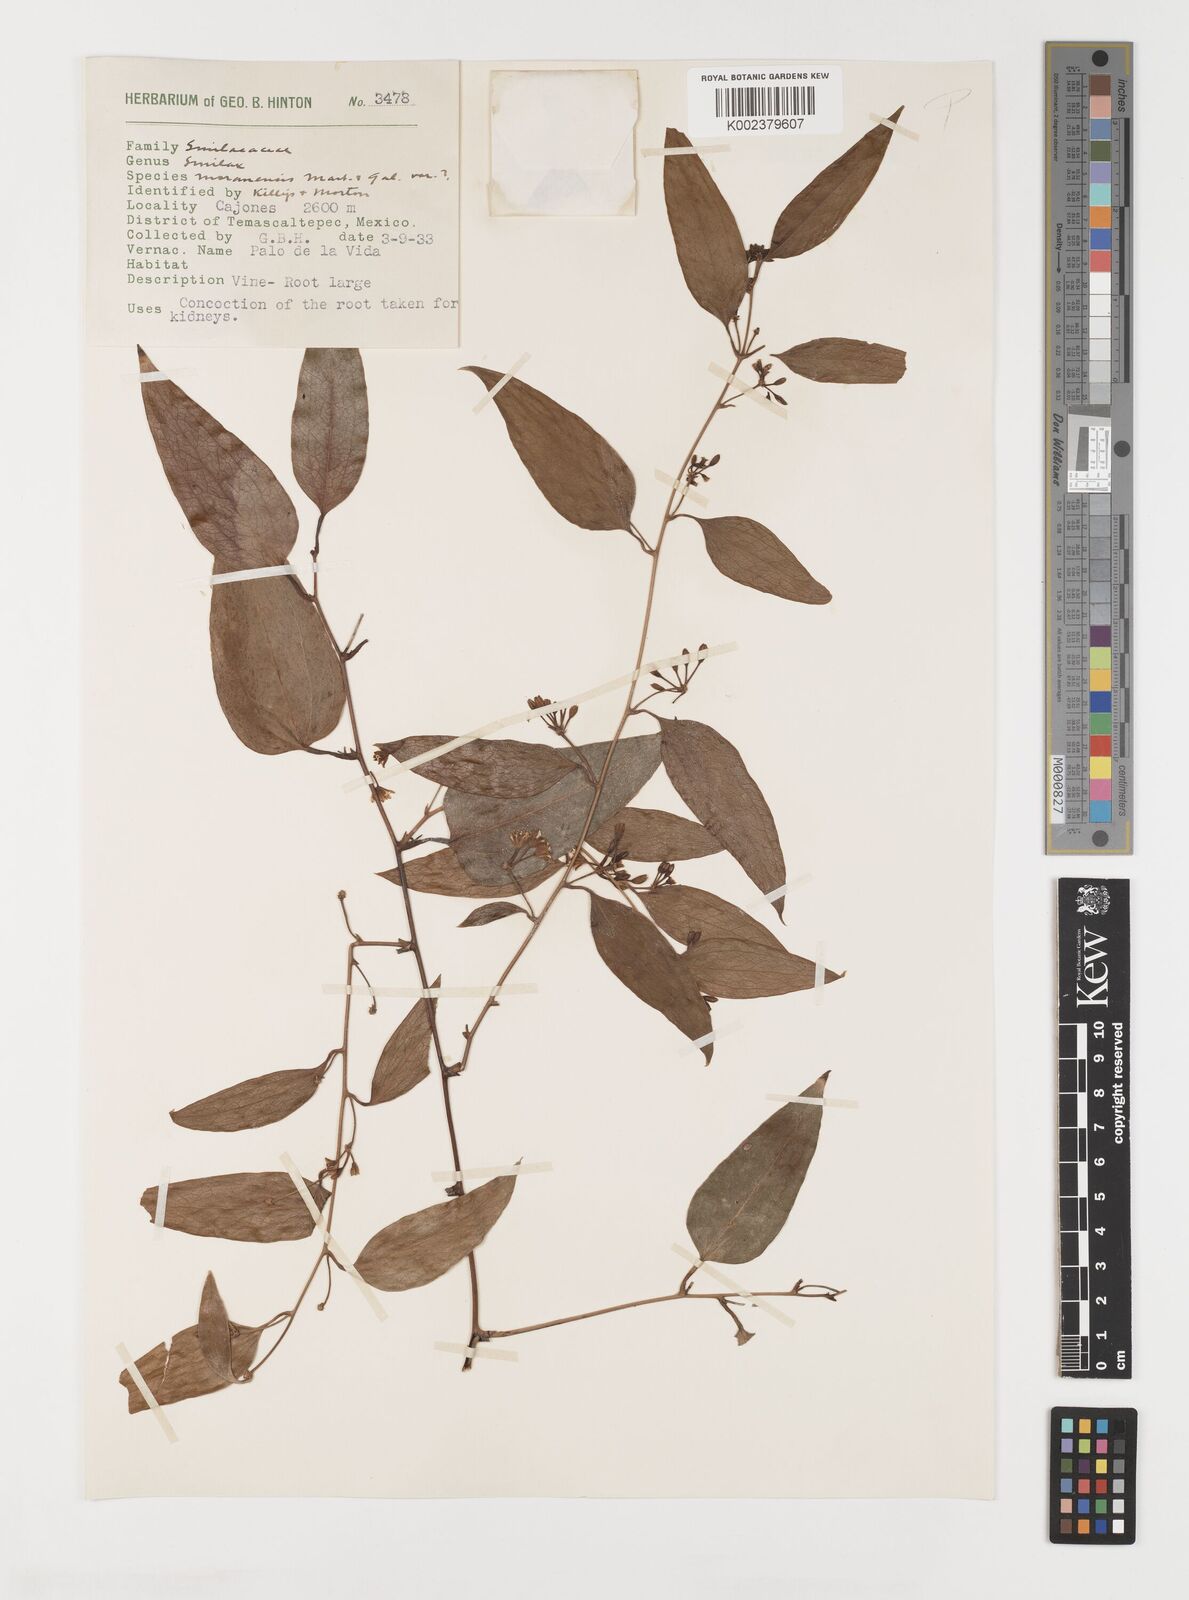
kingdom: Plantae
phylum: Tracheophyta
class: Liliopsida
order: Liliales
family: Smilacaceae
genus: Smilax
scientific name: Smilax moranensis
